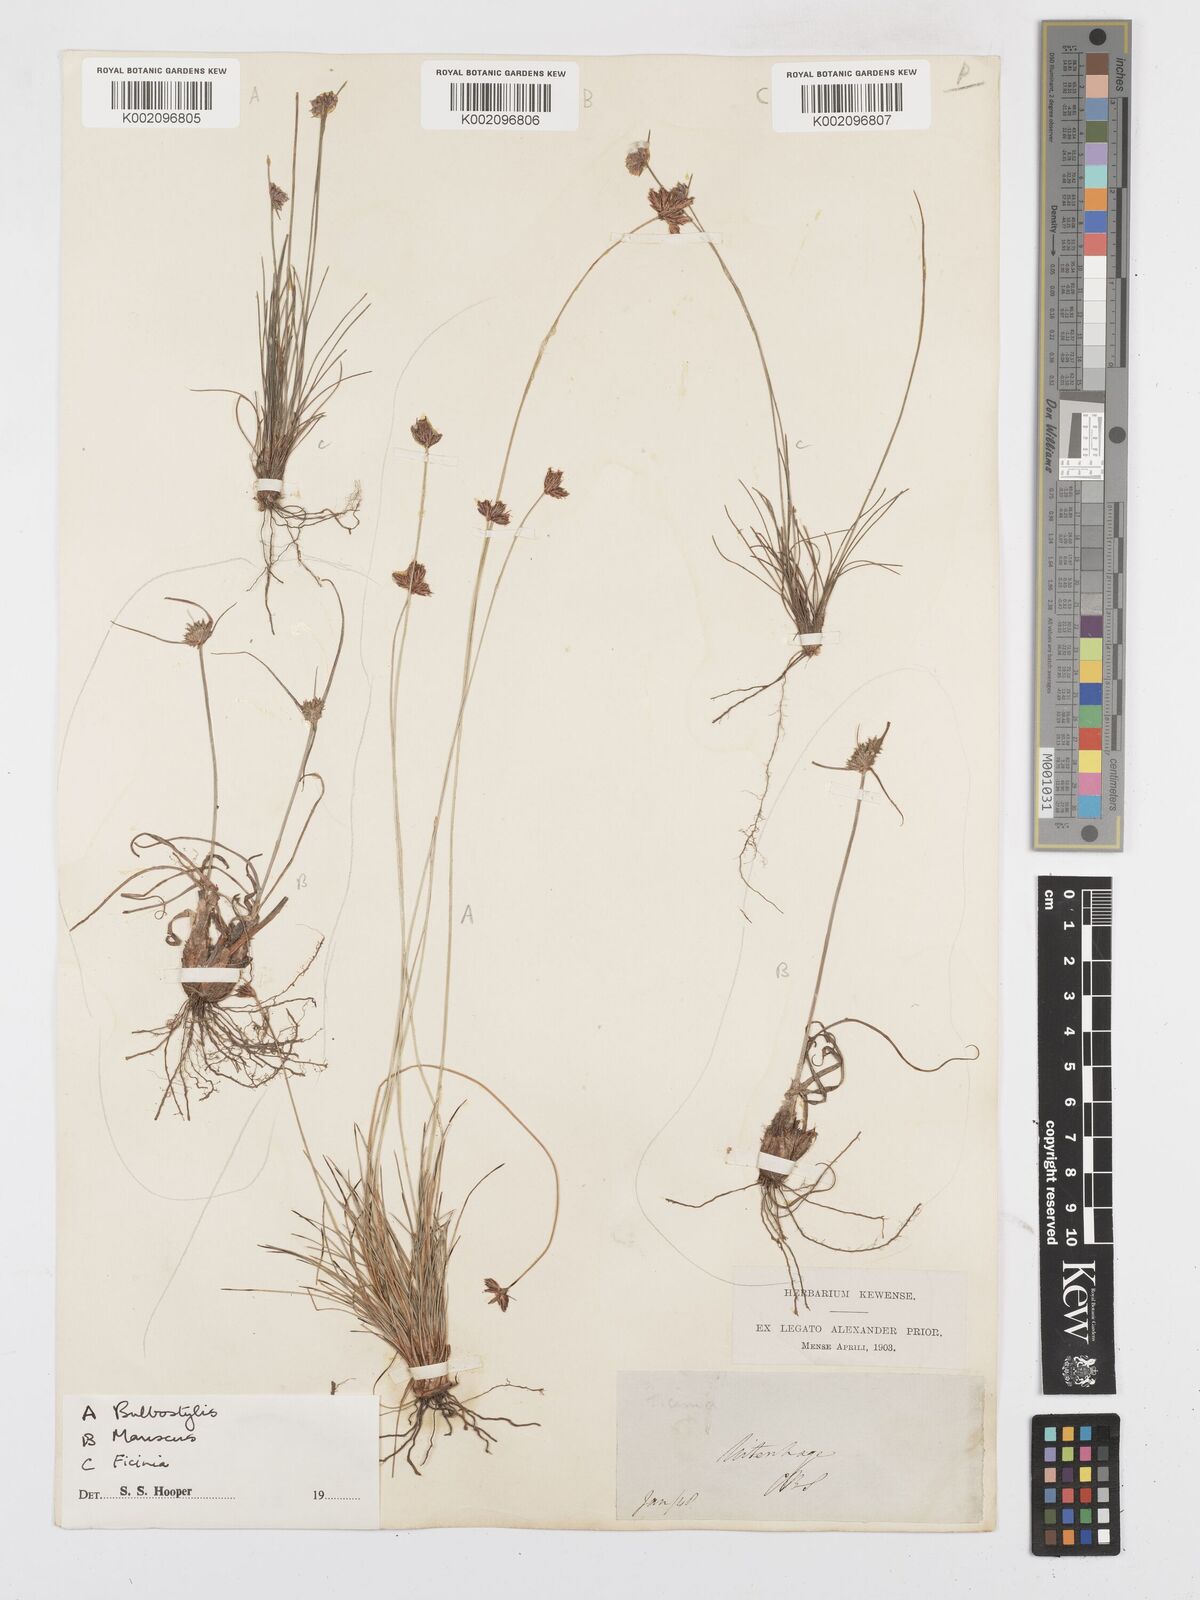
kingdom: Plantae
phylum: Tracheophyta
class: Liliopsida
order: Poales
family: Cyperaceae
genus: Bulbostylis
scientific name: Bulbostylis
